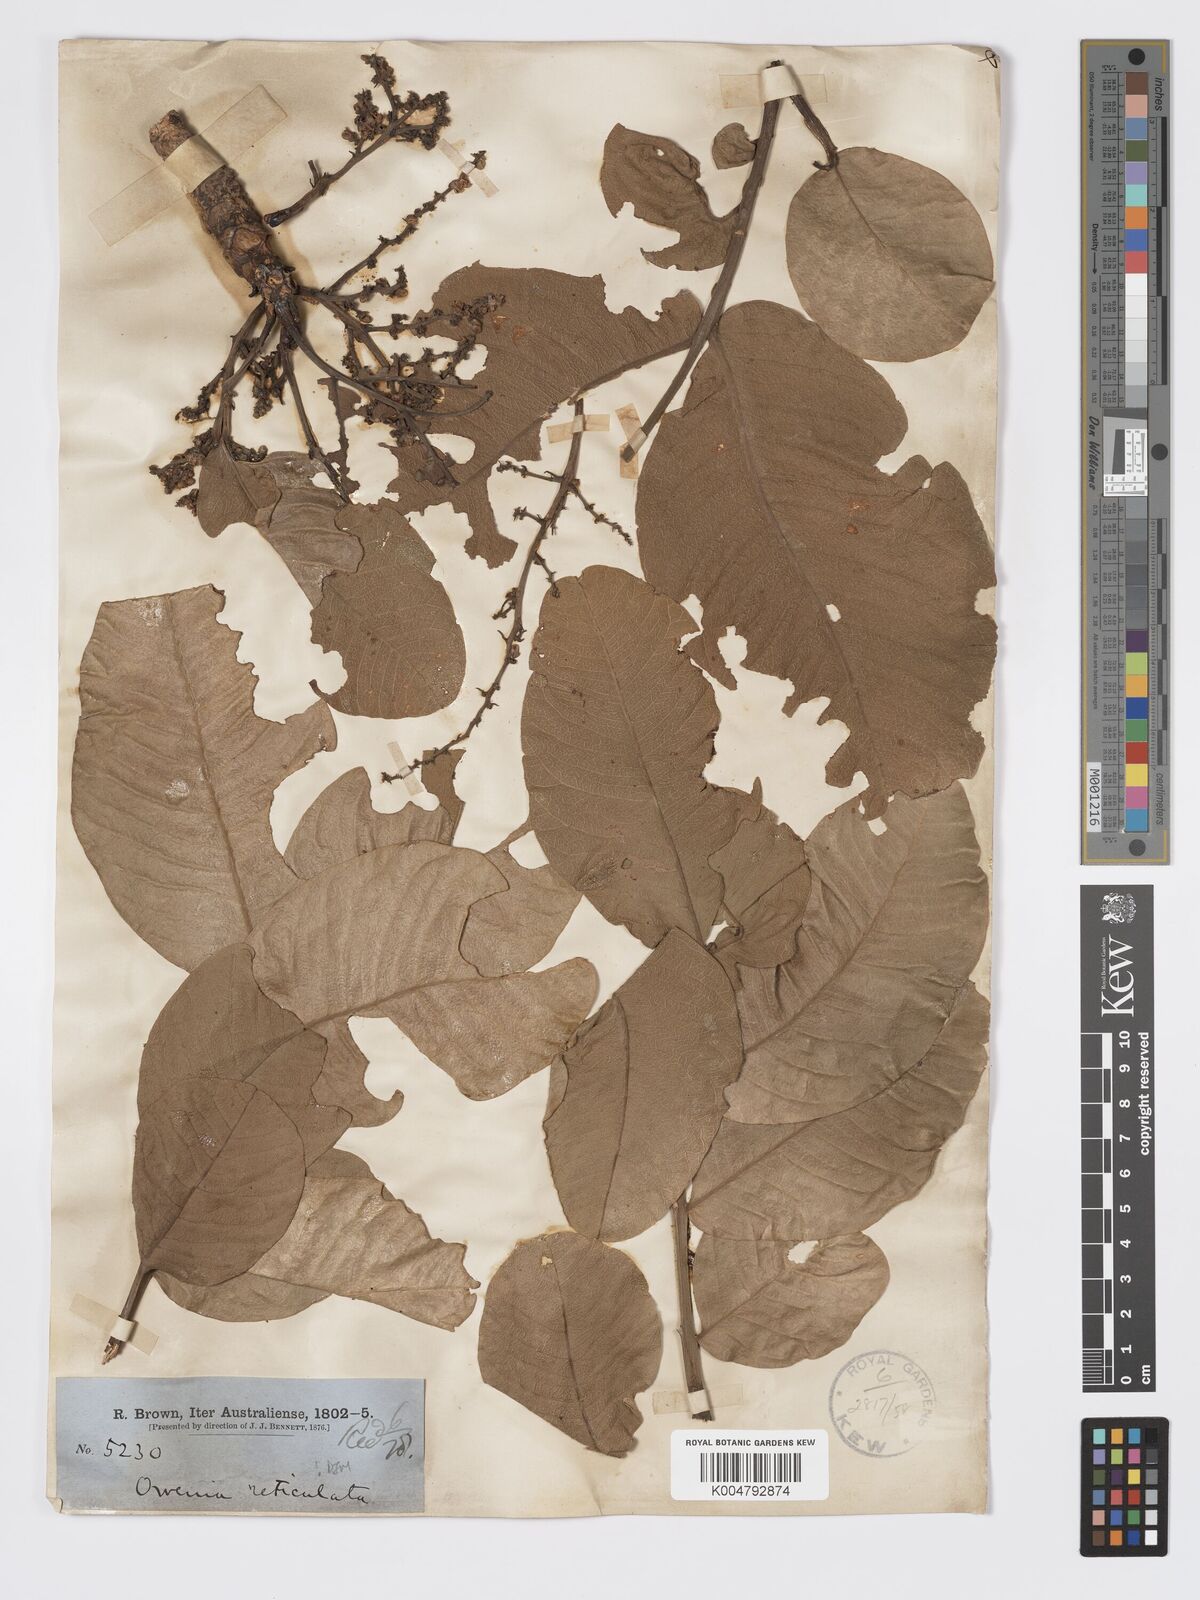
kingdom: Plantae
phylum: Tracheophyta
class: Magnoliopsida
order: Sapindales
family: Meliaceae
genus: Owenia
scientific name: Owenia reticulata
